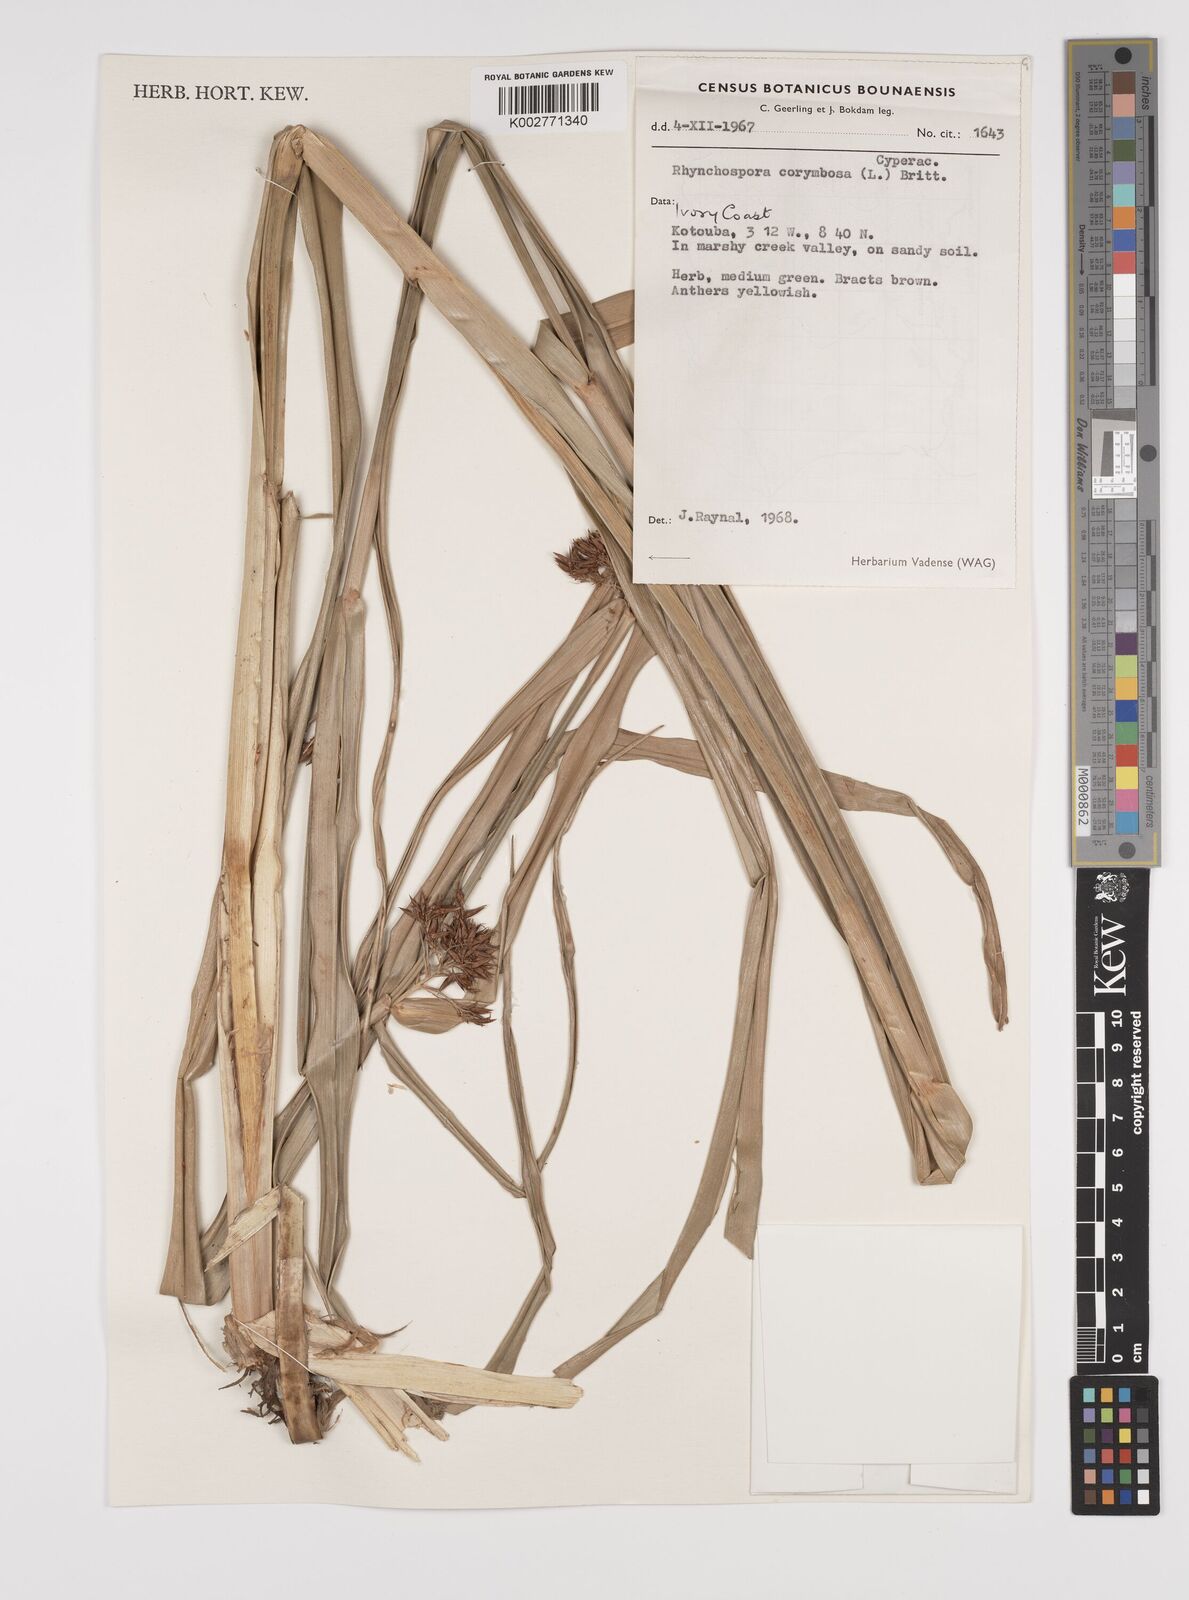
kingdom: Plantae
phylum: Tracheophyta
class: Liliopsida
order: Poales
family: Cyperaceae
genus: Rhynchospora
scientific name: Rhynchospora corymbosa
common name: Golden beak sedge
